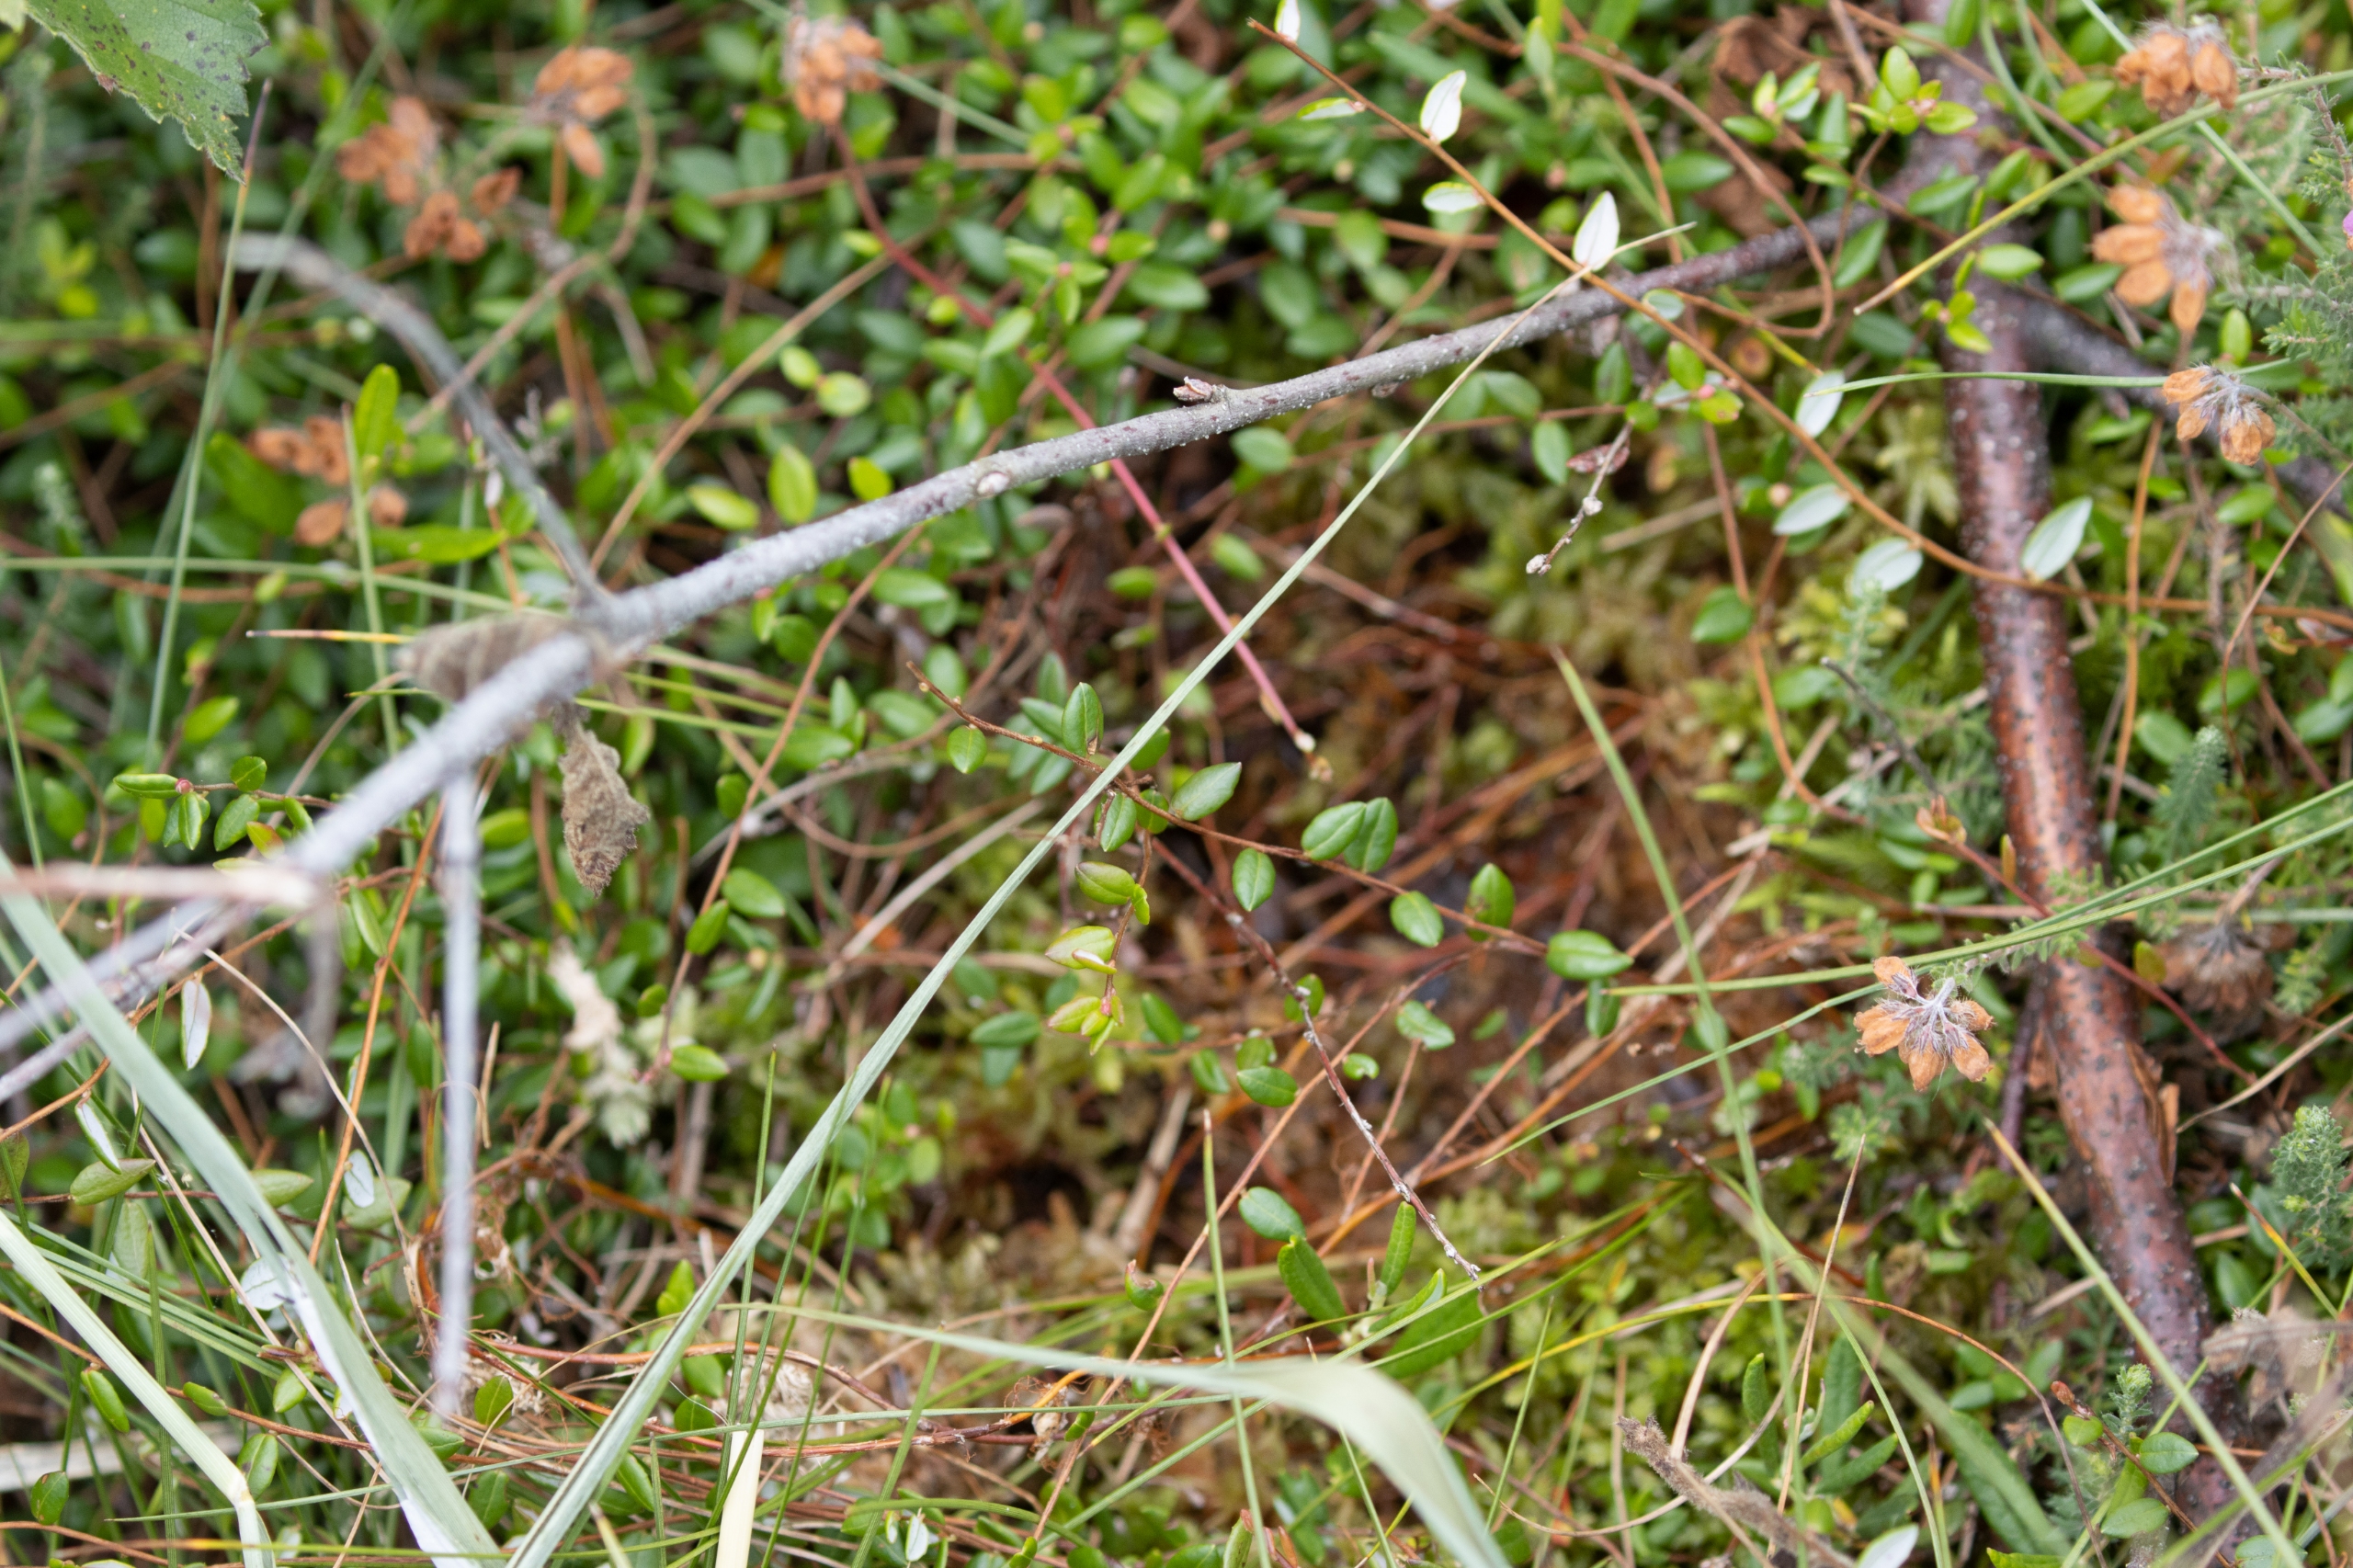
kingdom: Plantae
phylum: Tracheophyta
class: Magnoliopsida
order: Ericales
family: Ericaceae
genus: Vaccinium
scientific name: Vaccinium oxycoccos
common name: Tranebær
